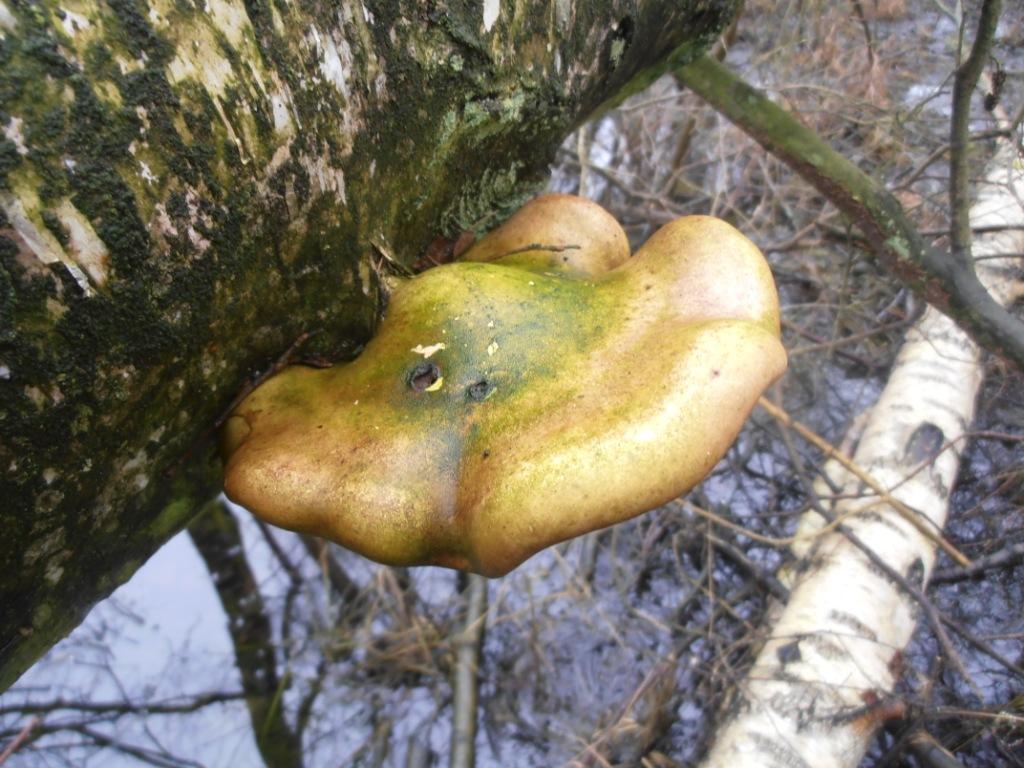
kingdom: Fungi
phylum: Basidiomycota
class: Agaricomycetes
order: Polyporales
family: Fomitopsidaceae
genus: Fomitopsis
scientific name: Fomitopsis betulina
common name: birkeporesvamp
